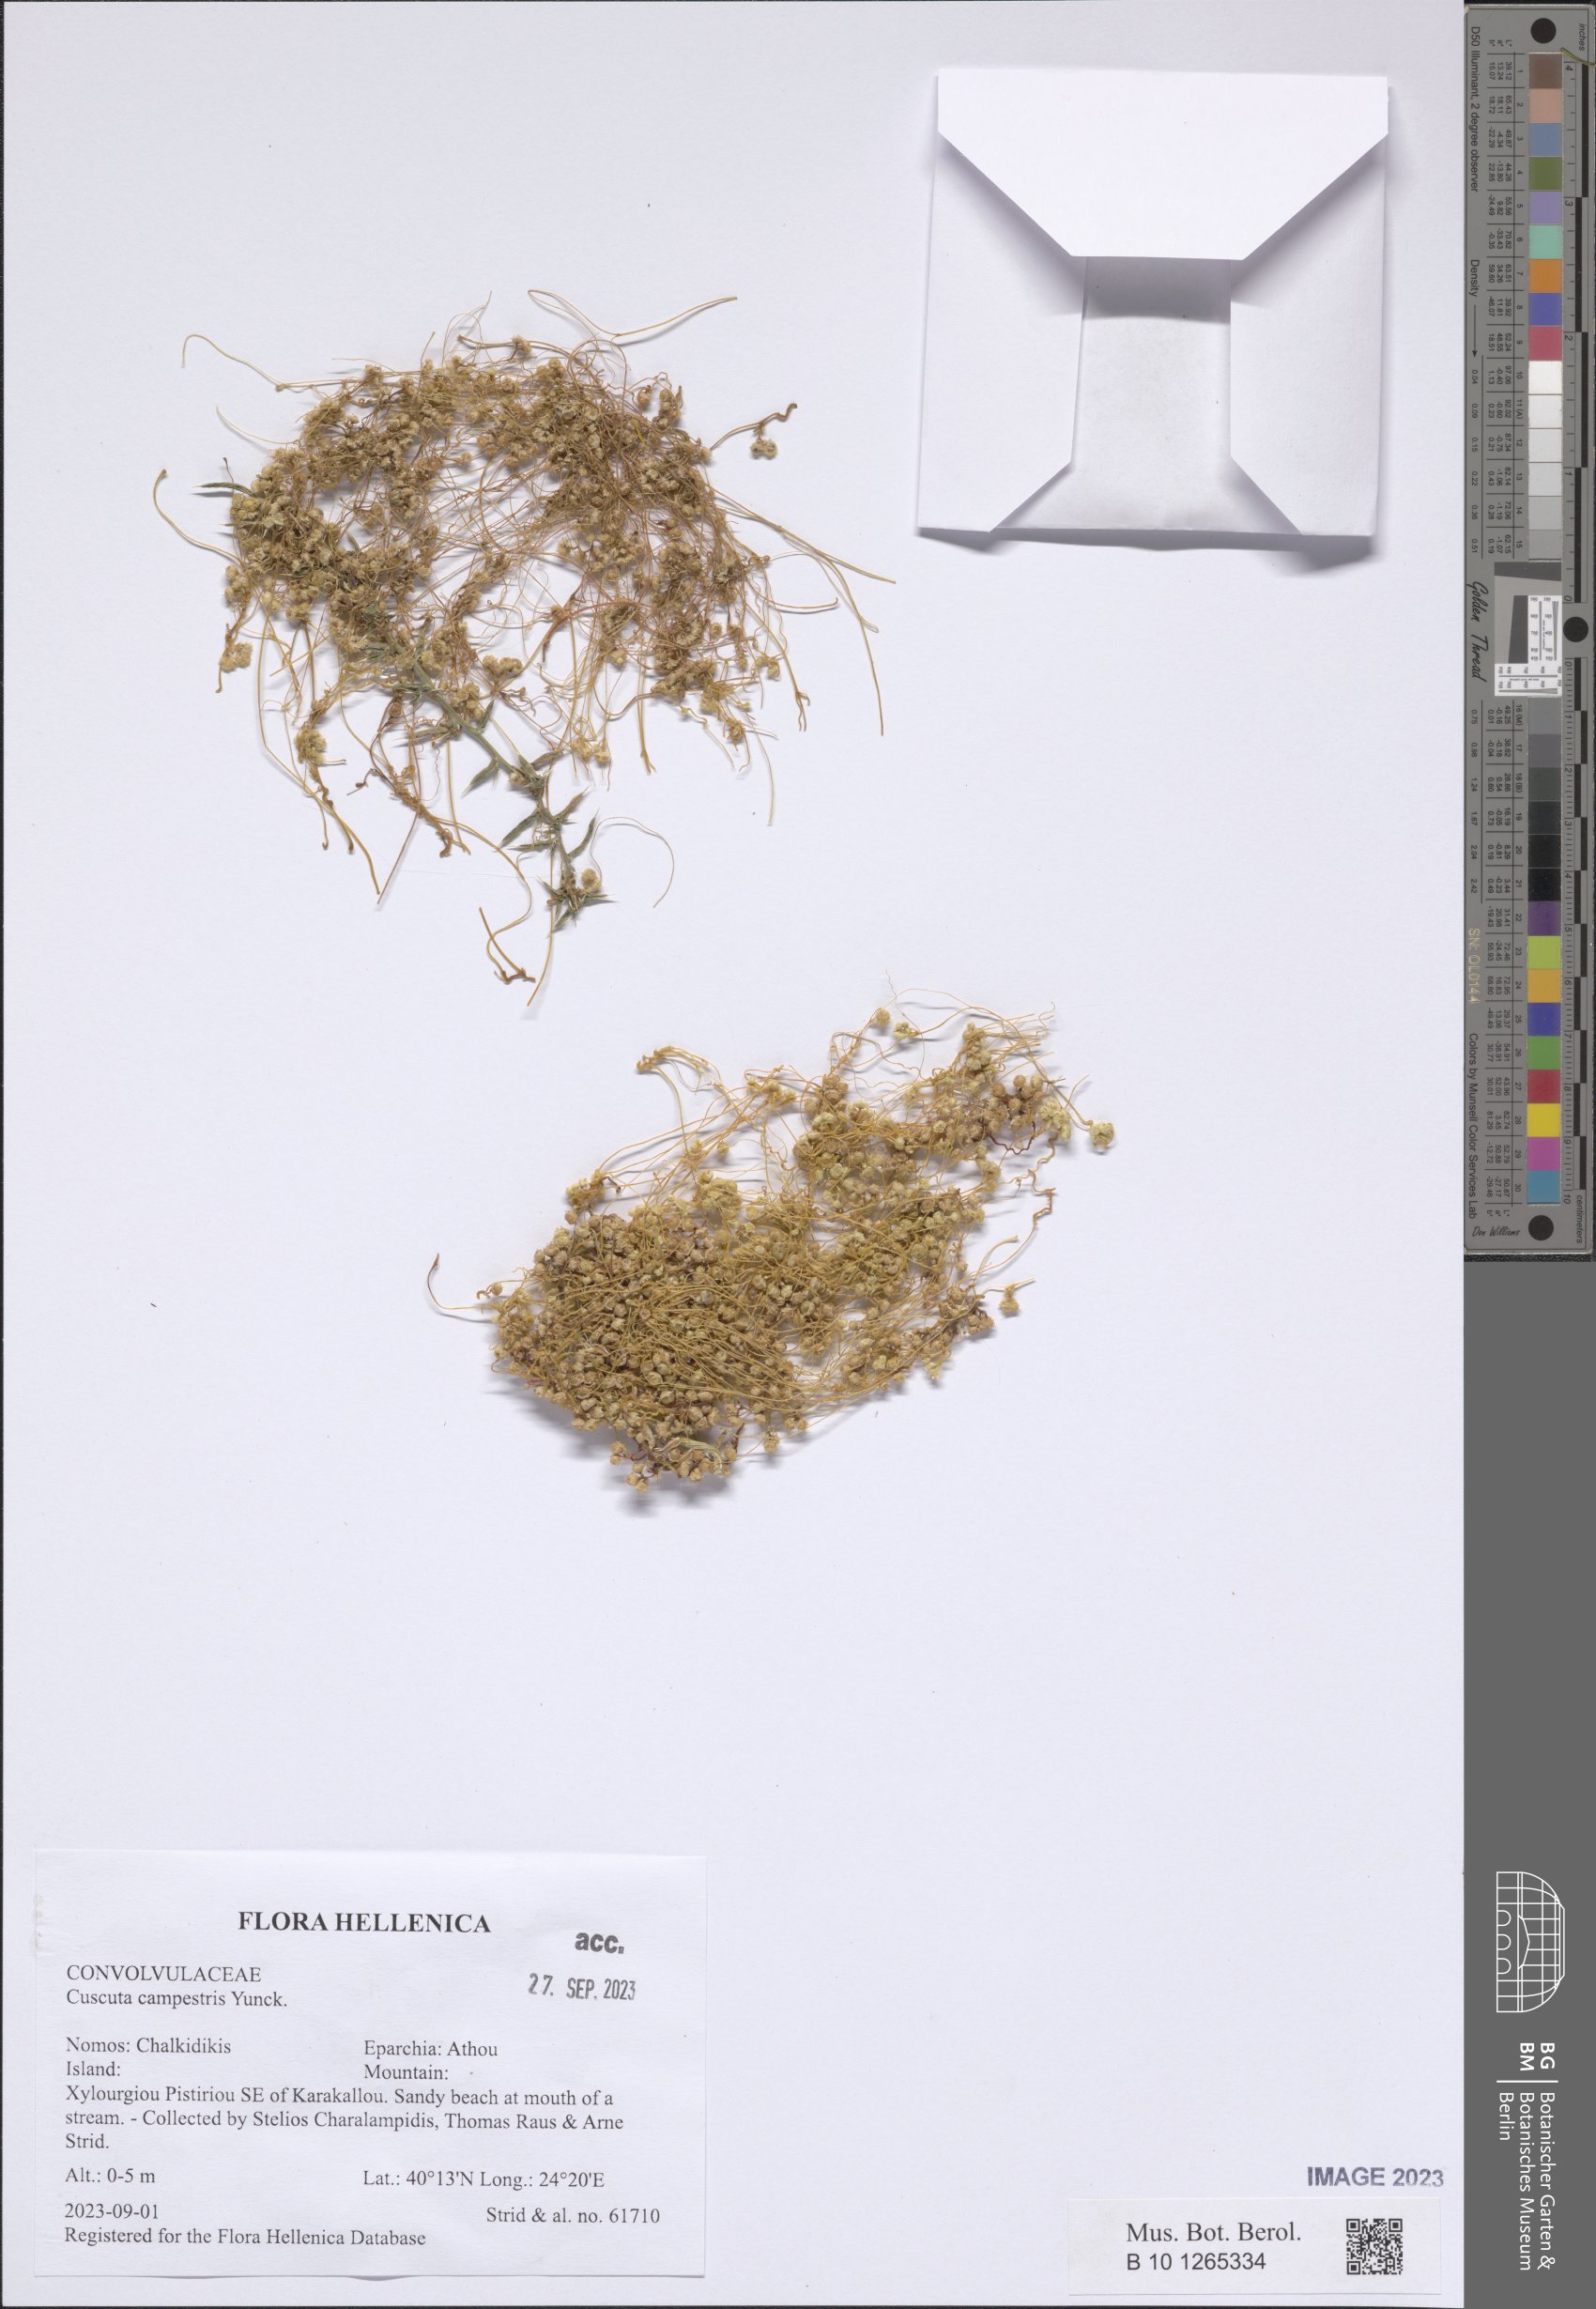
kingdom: Plantae
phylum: Tracheophyta
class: Magnoliopsida
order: Solanales
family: Convolvulaceae
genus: Cuscuta
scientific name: Cuscuta campestris
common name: Yellow dodder
